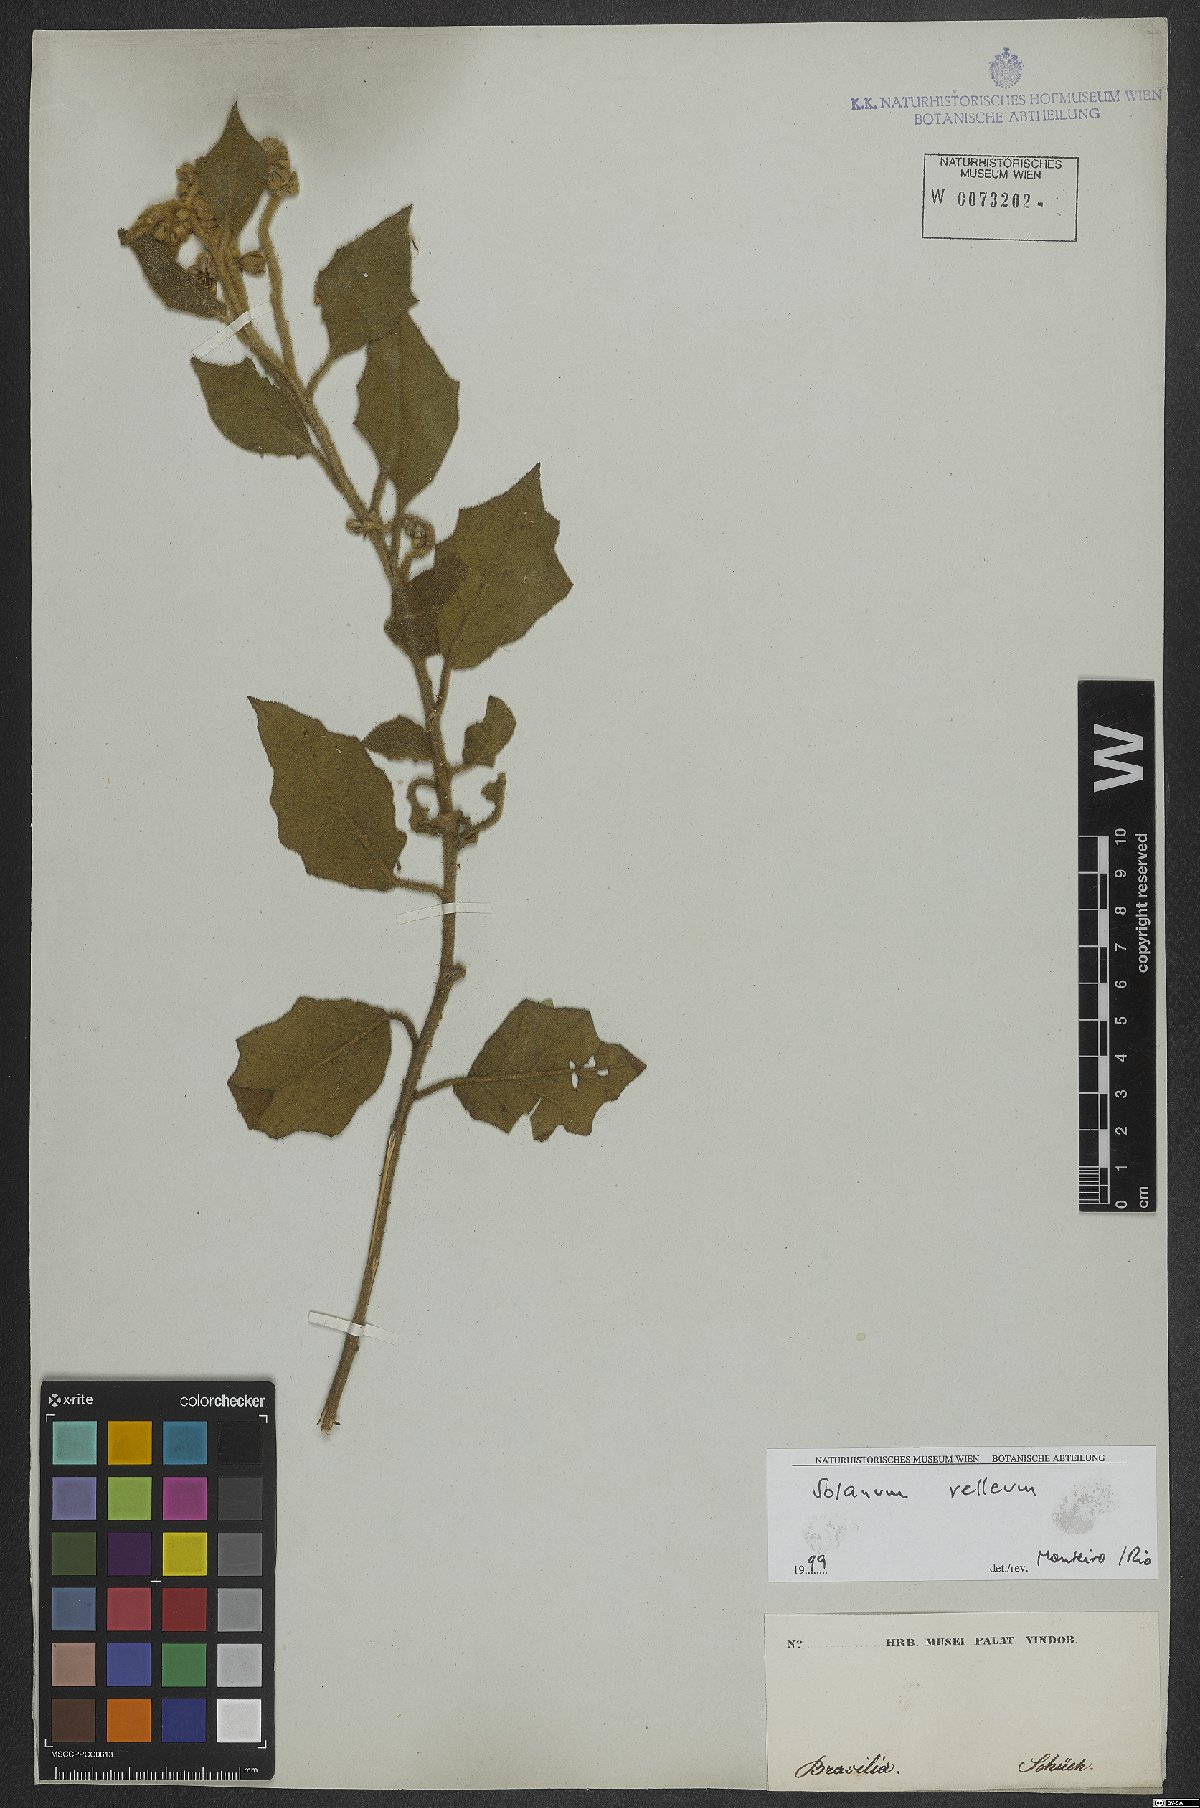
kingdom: Plantae
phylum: Tracheophyta
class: Magnoliopsida
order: Solanales
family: Solanaceae
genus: Solanum
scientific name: Solanum velleum
